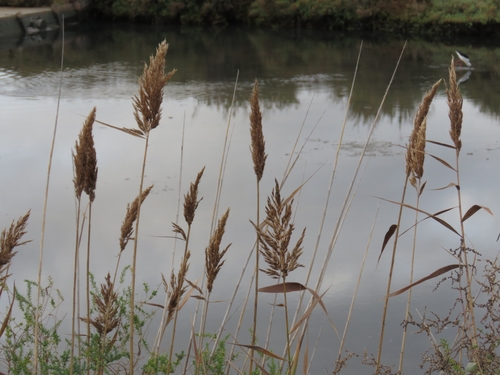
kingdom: Plantae
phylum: Tracheophyta
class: Liliopsida
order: Poales
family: Poaceae
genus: Phragmites
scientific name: Phragmites australis
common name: Common reed
